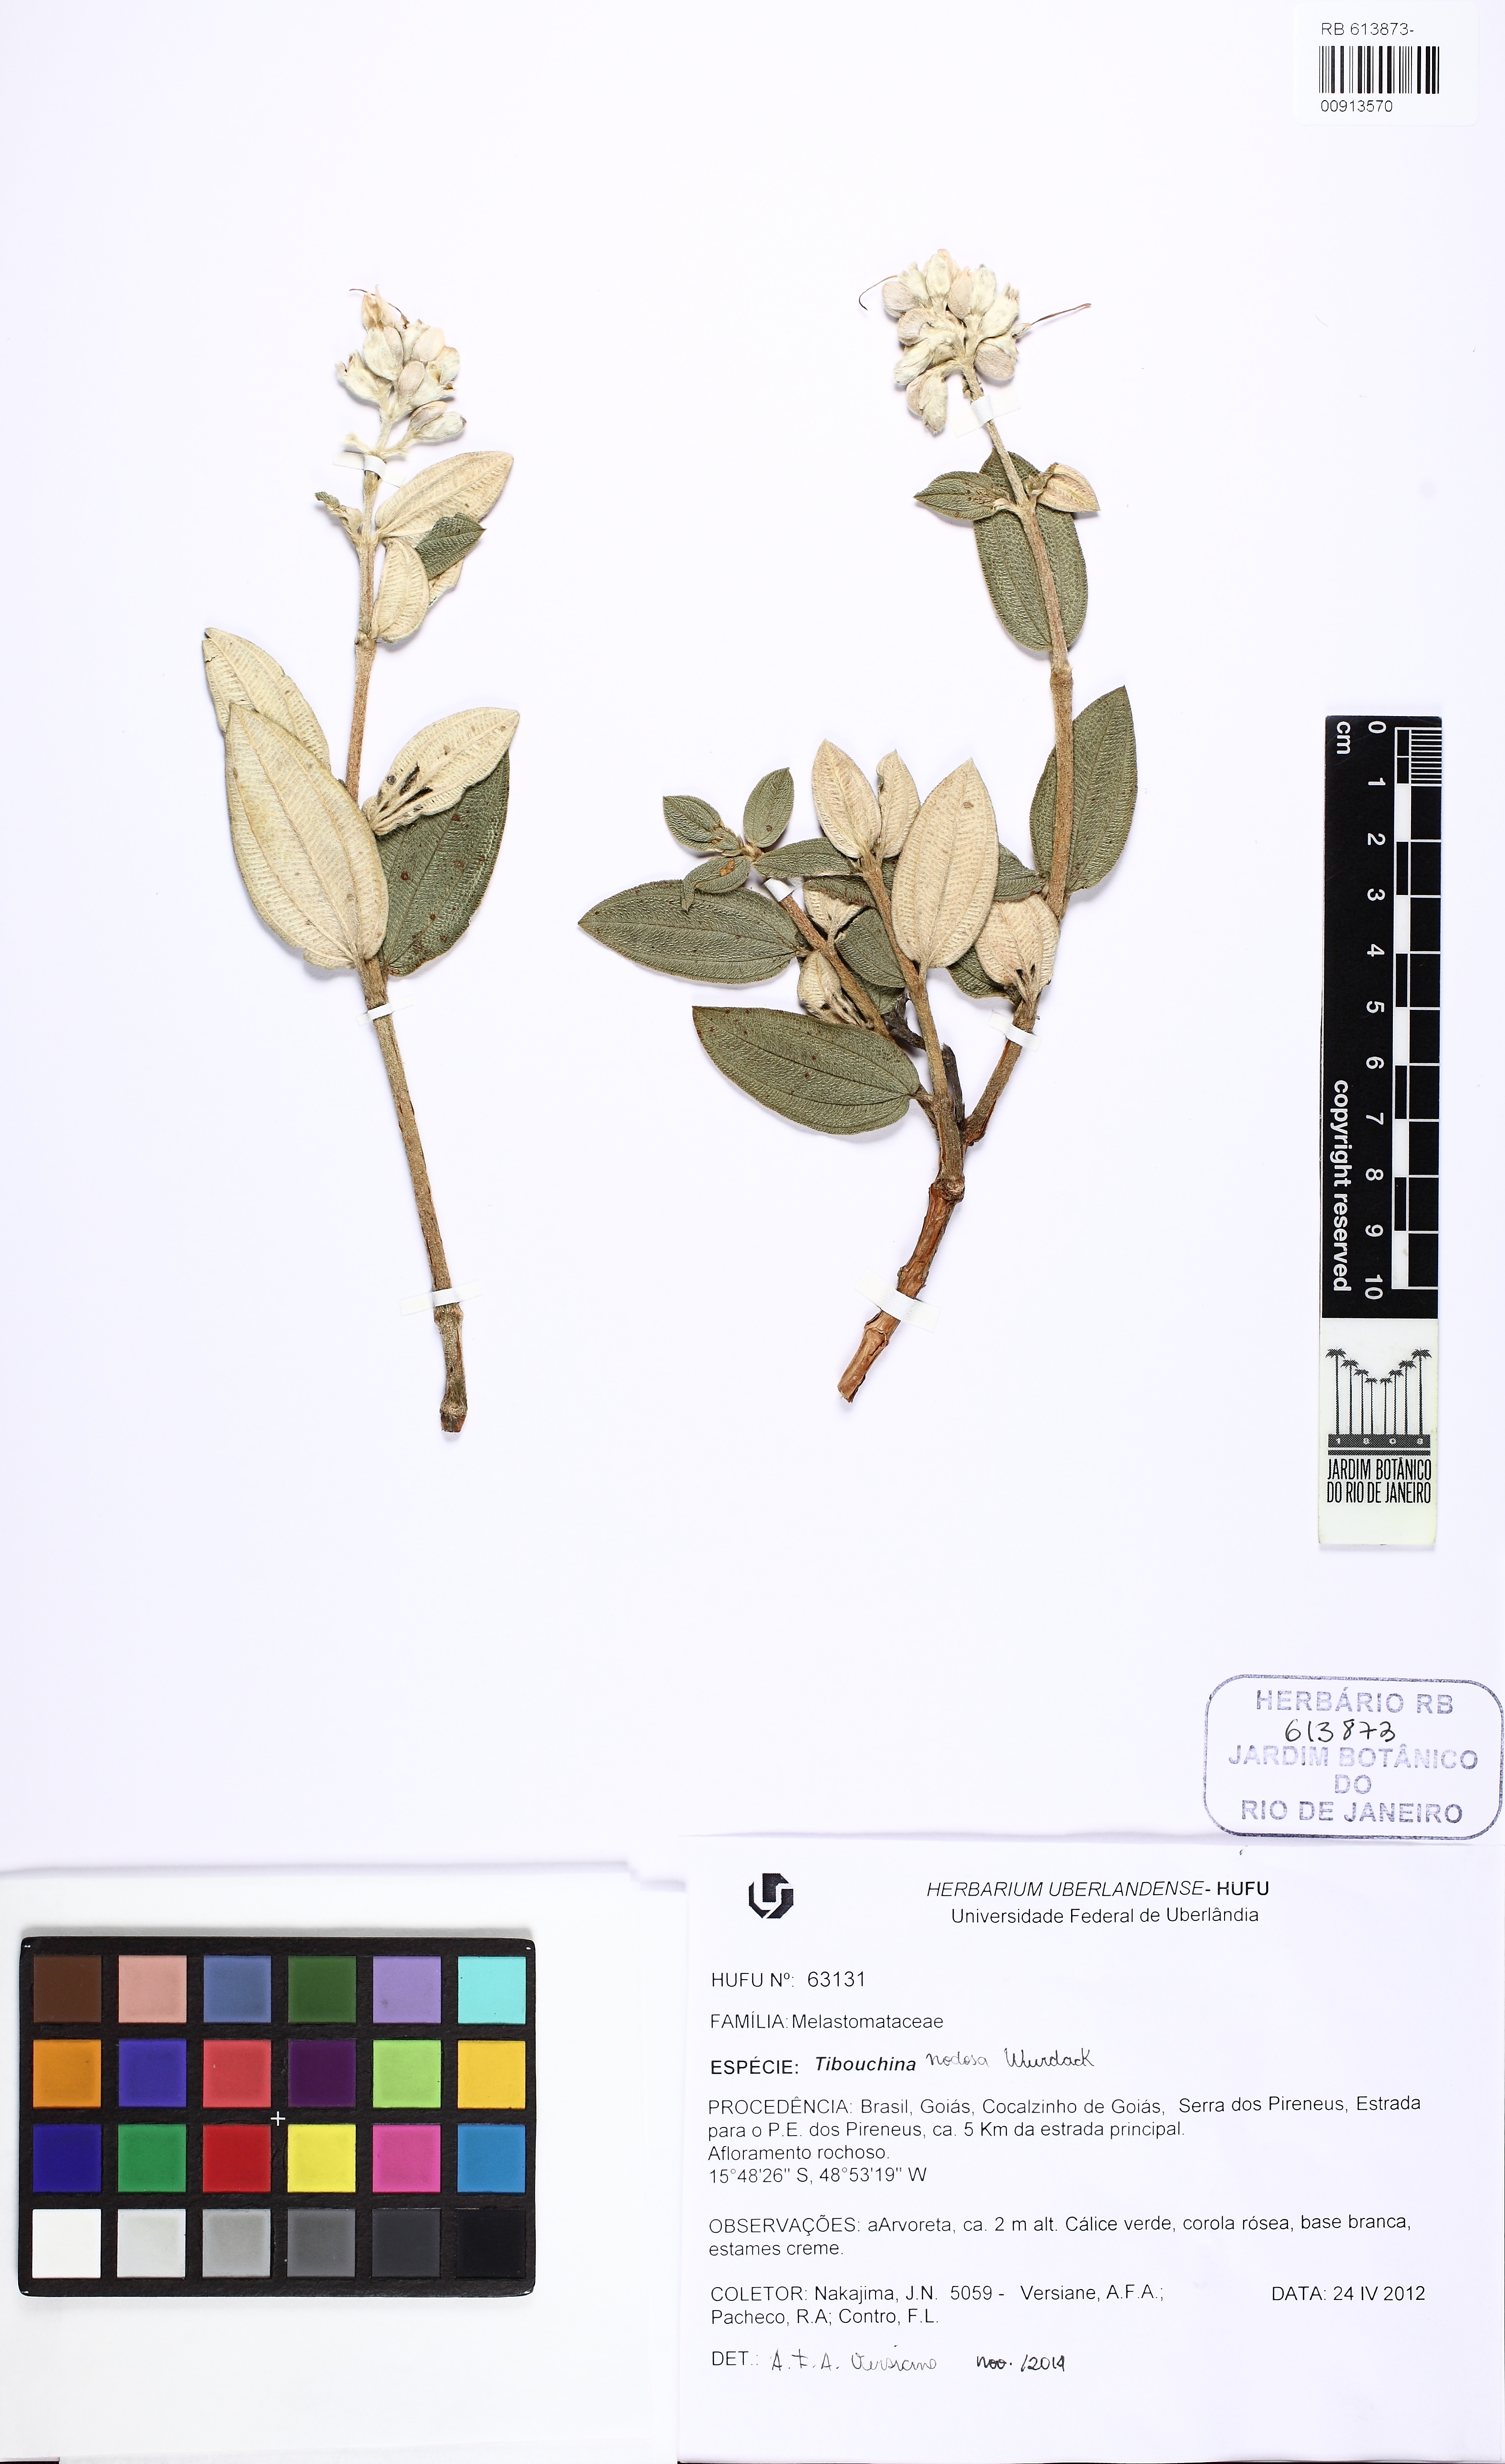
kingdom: Plantae
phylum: Tracheophyta
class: Magnoliopsida
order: Myrtales
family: Melastomataceae
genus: Pleroma
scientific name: Pleroma nodosum
